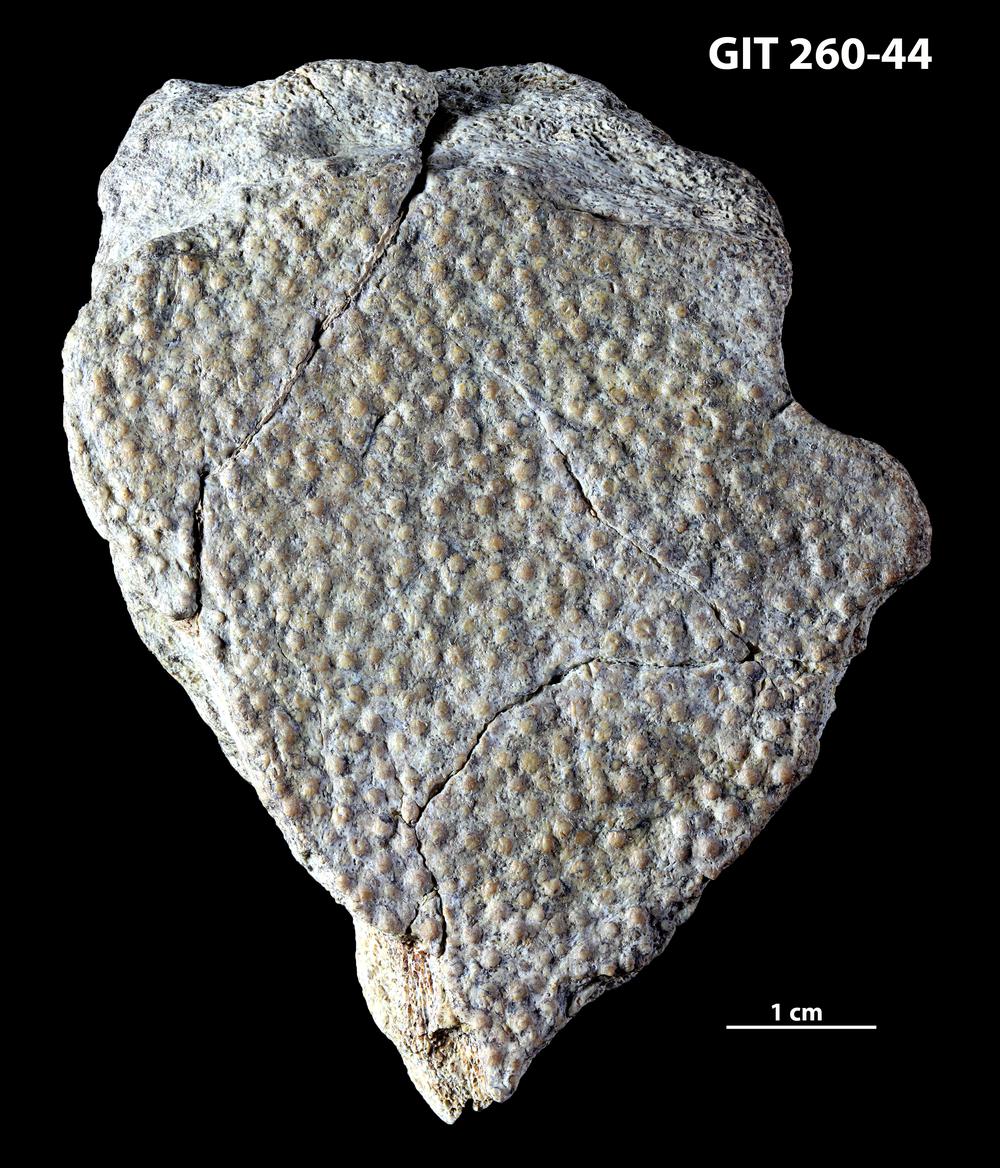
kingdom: Animalia
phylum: Chordata
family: Homostiidae
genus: Homostius
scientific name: Homostius
